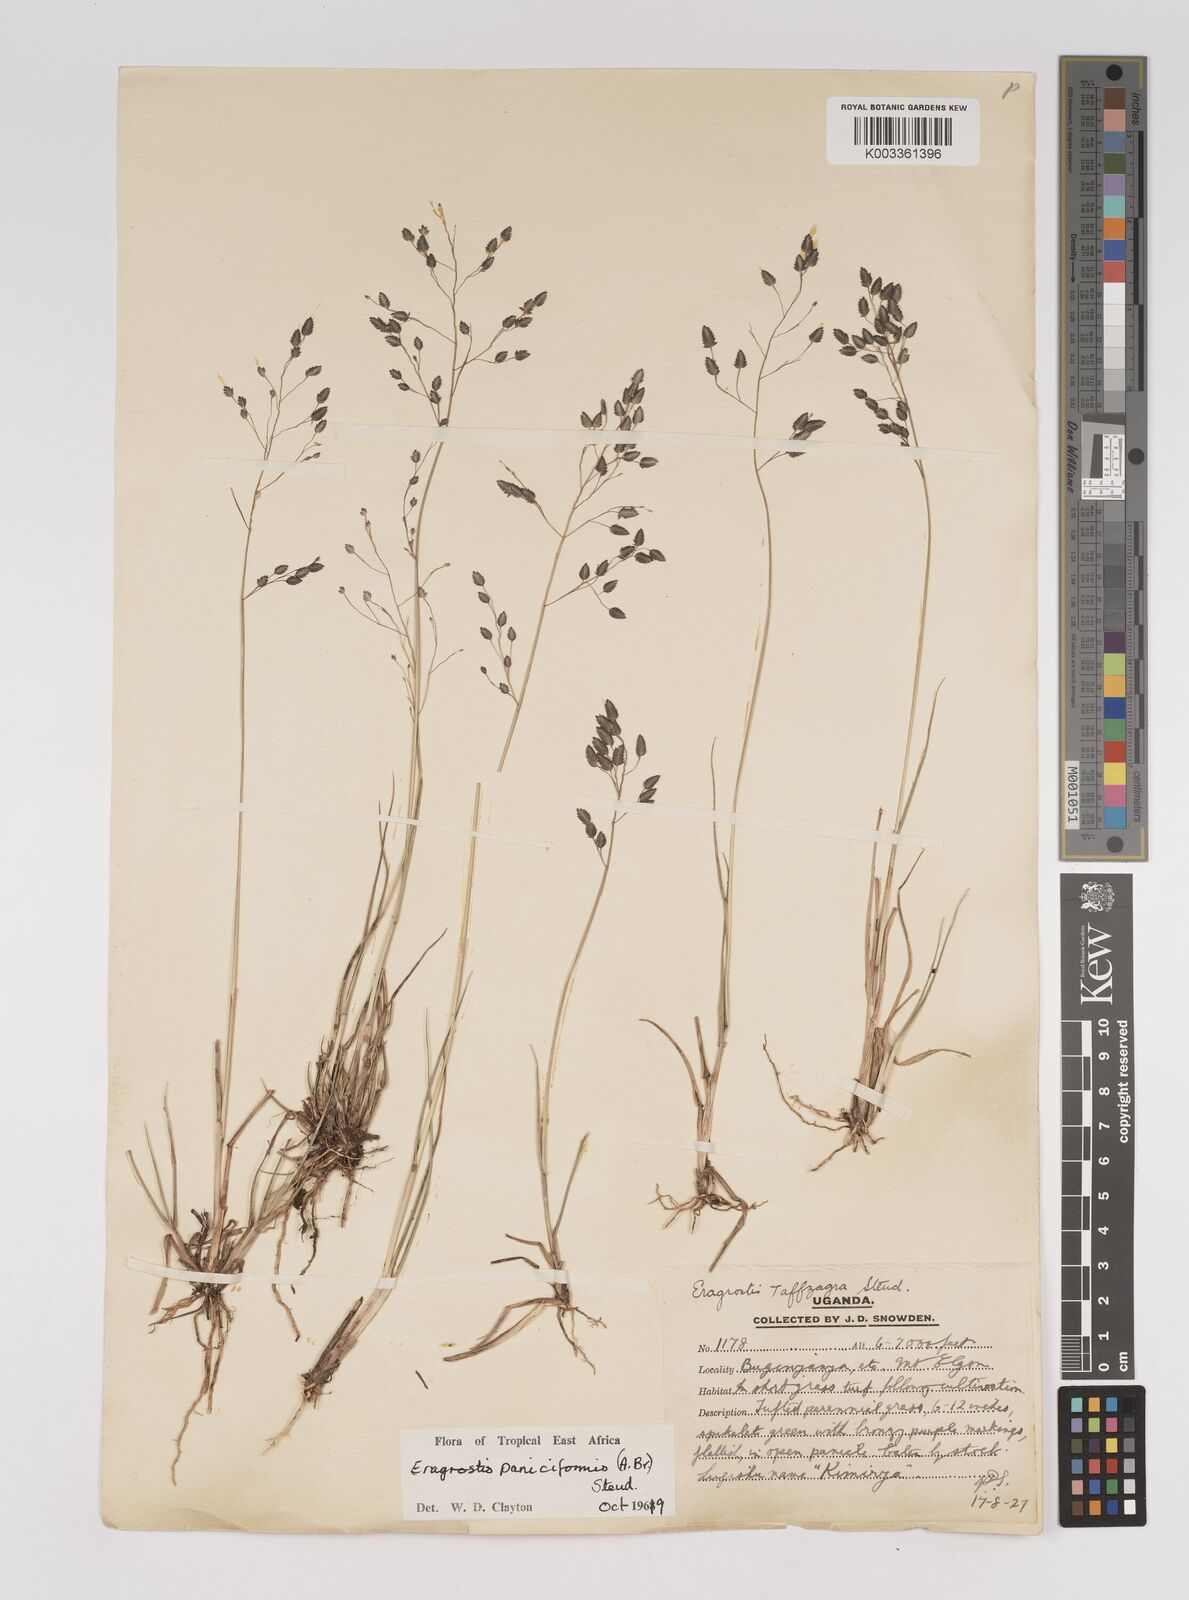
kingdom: Plantae
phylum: Tracheophyta
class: Liliopsida
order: Poales
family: Poaceae
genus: Eragrostis
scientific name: Eragrostis paniciformis
